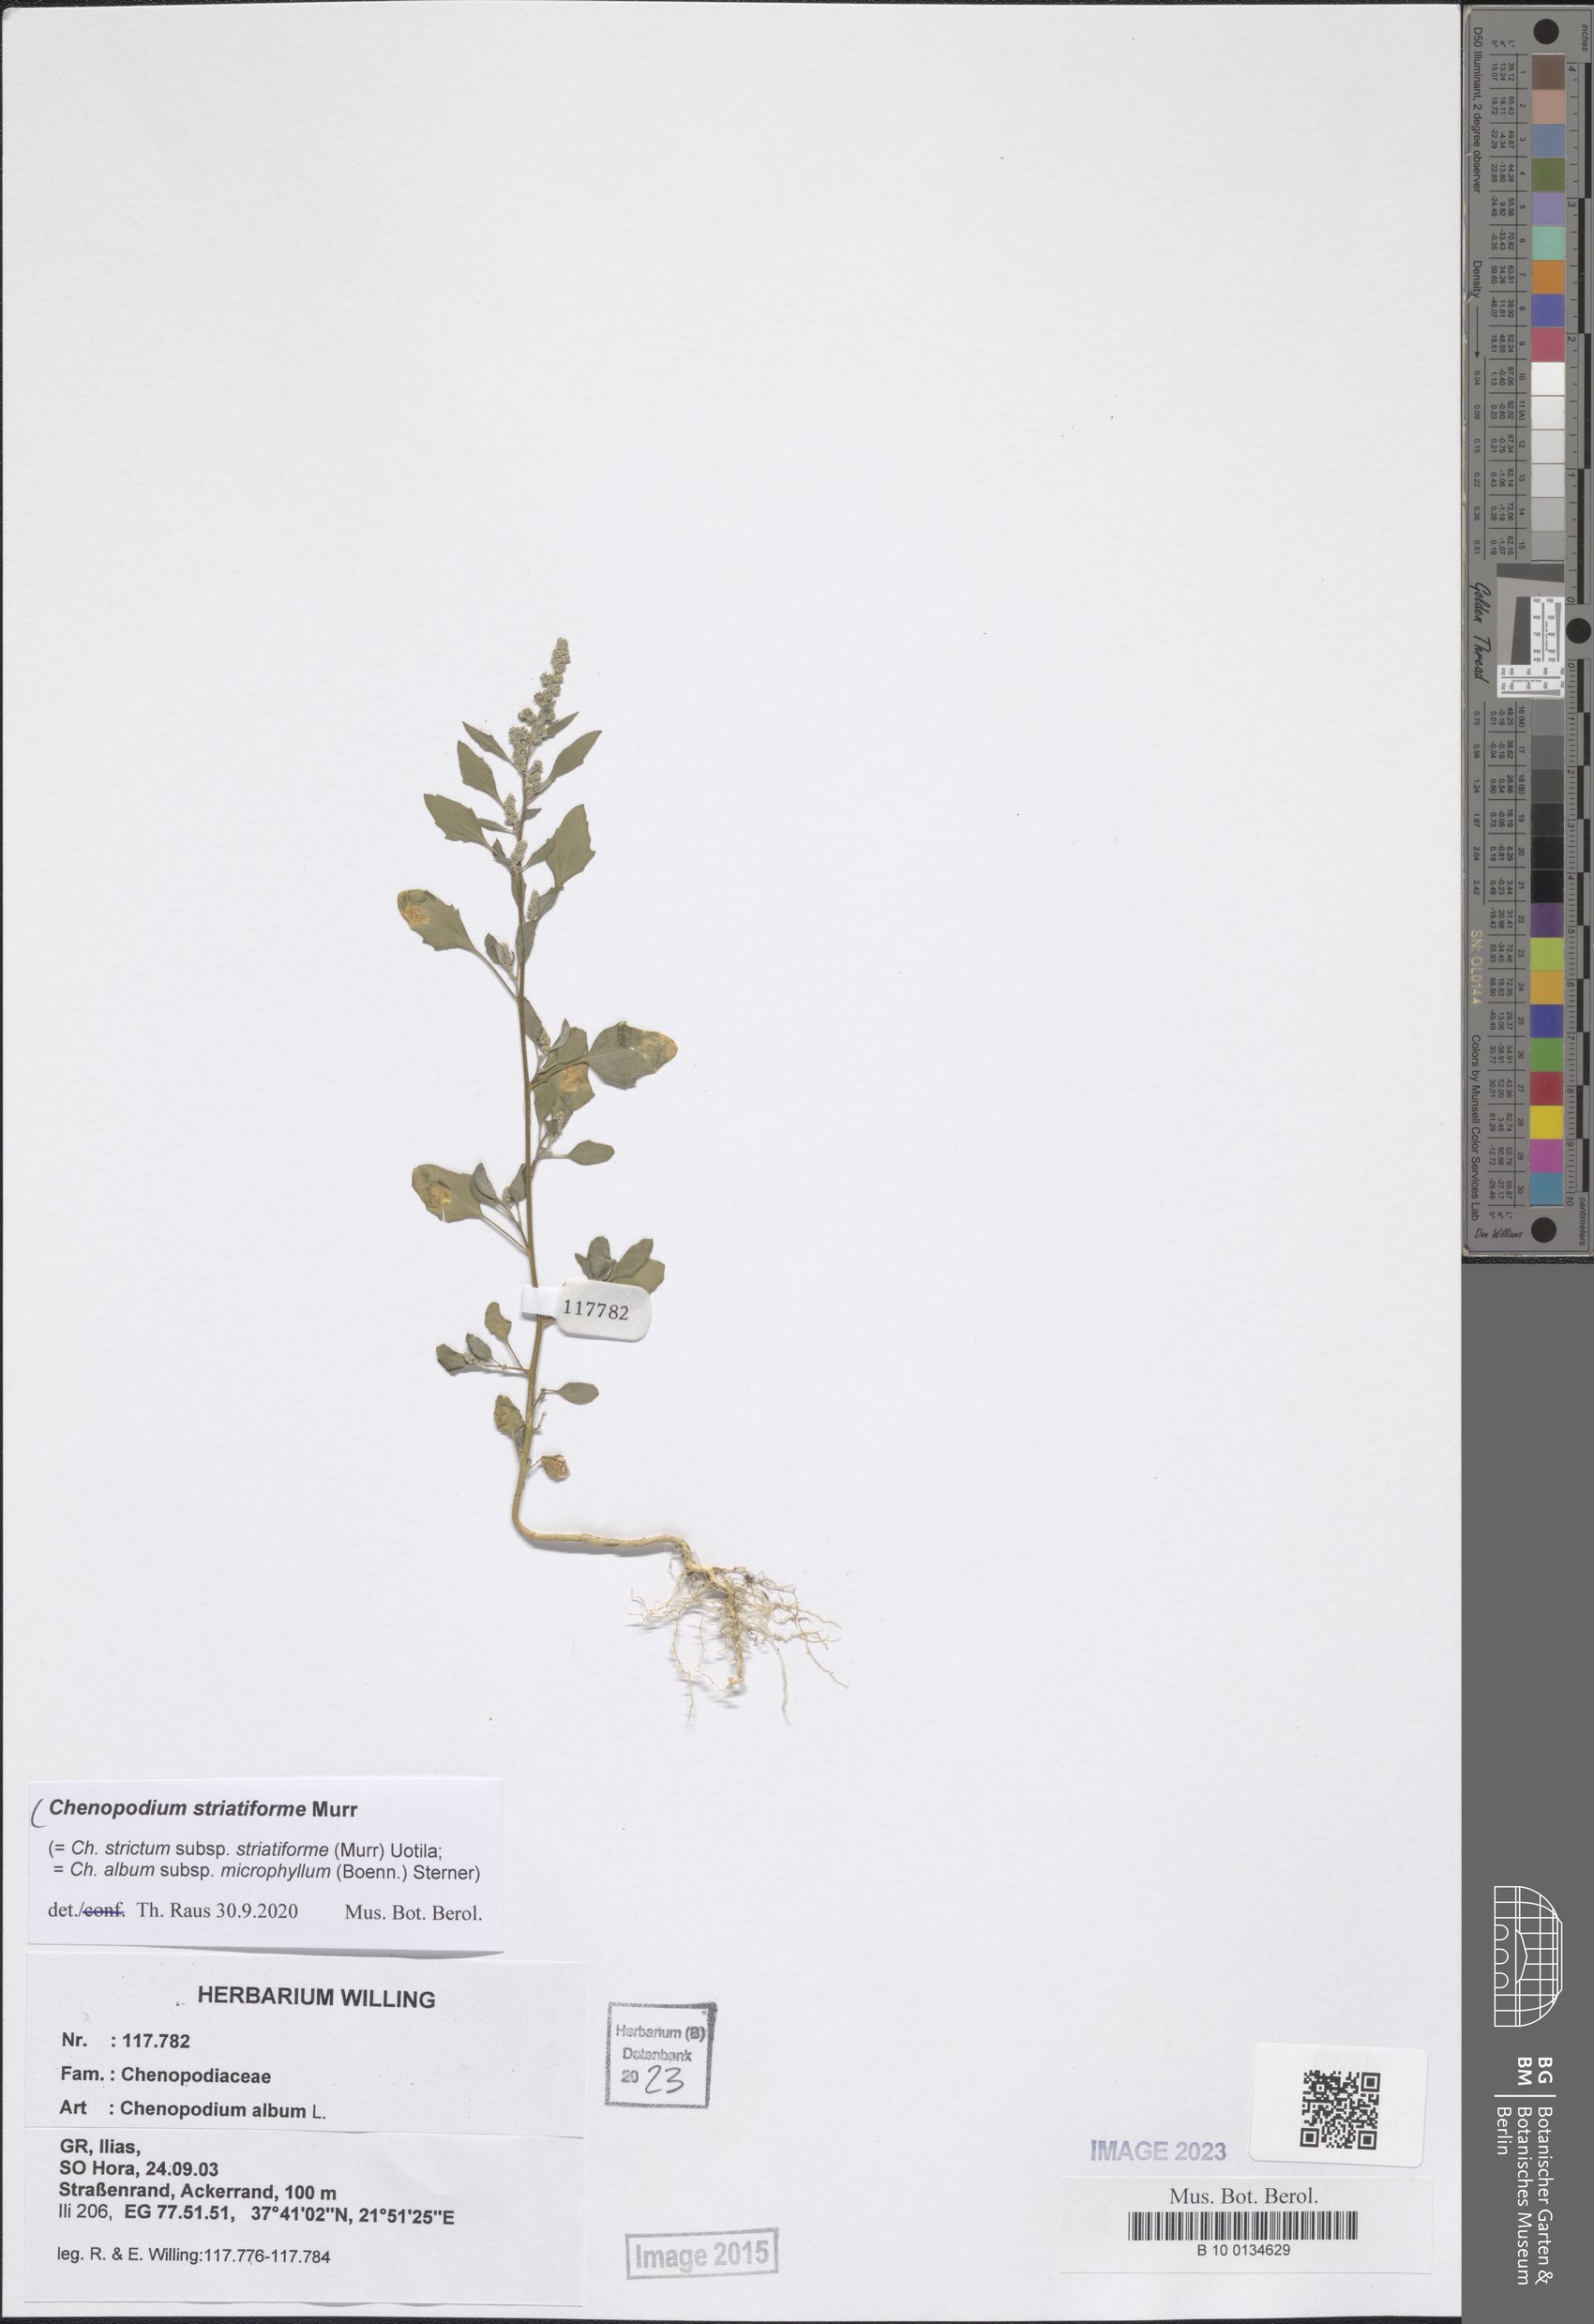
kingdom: Plantae
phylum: Tracheophyta
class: Magnoliopsida
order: Caryophyllales
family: Amaranthaceae
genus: Chenopodium
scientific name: Chenopodium striatiforme
